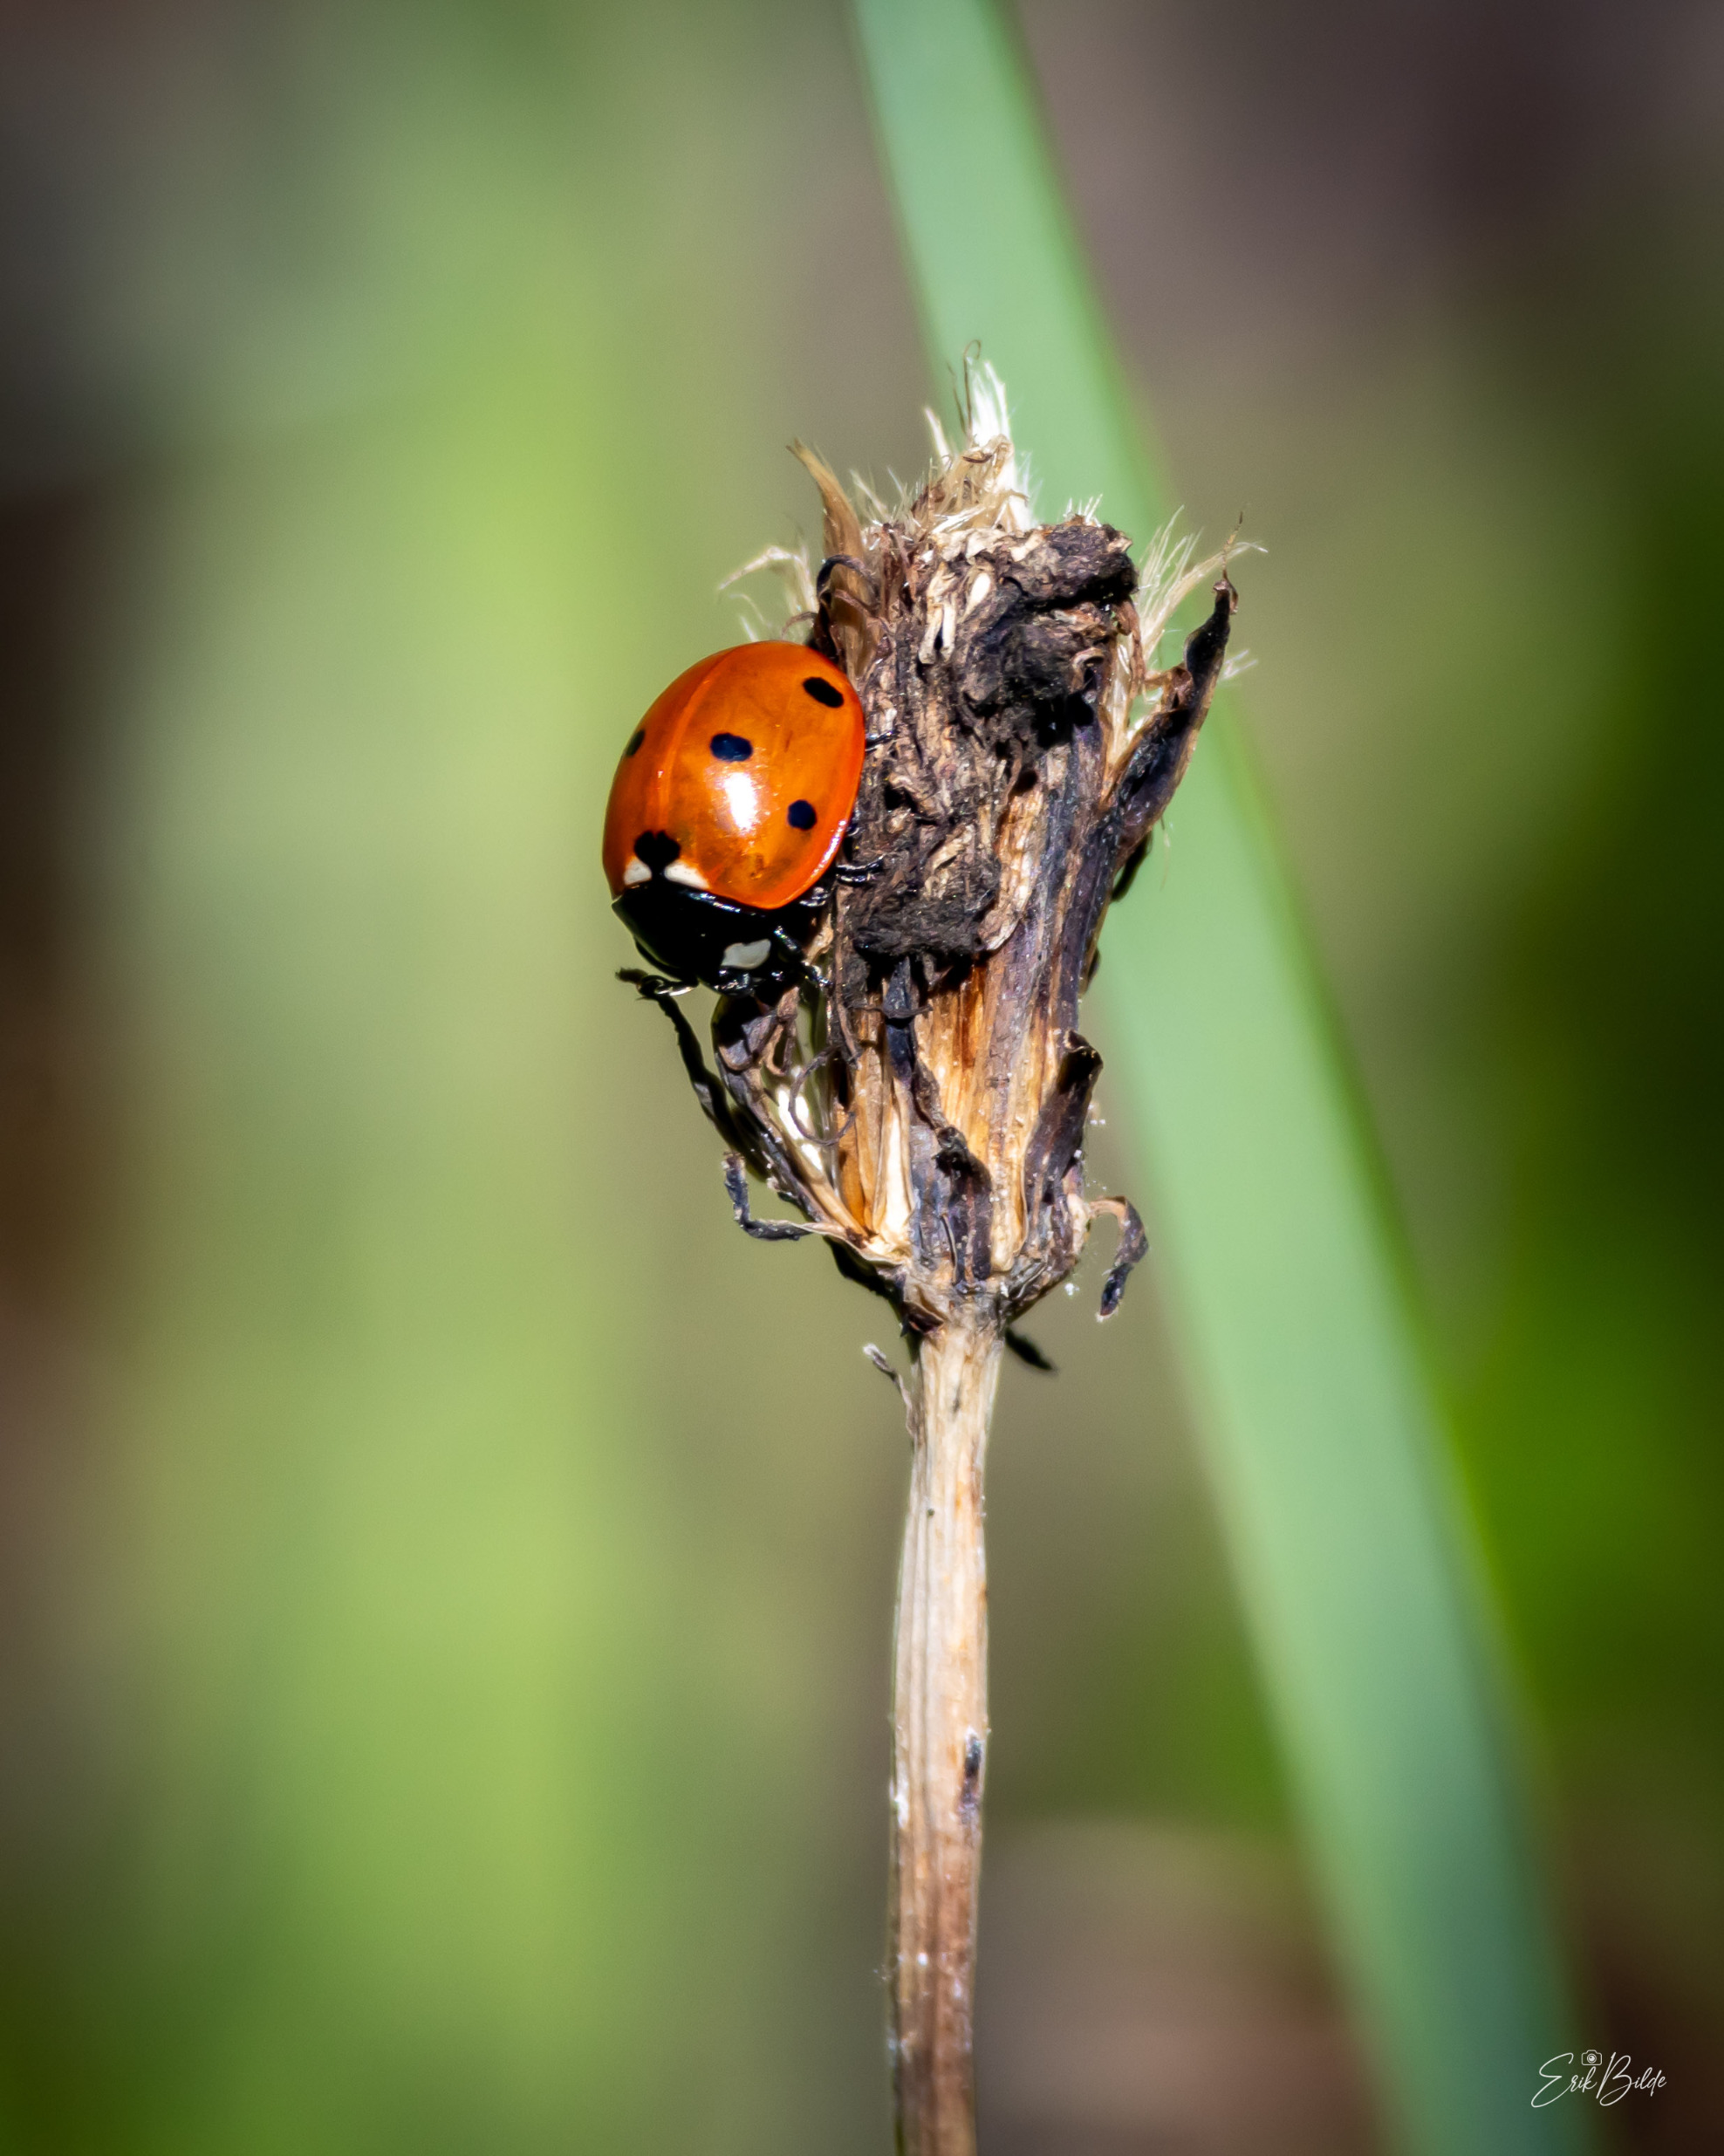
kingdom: Animalia
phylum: Arthropoda
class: Insecta
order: Coleoptera
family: Coccinellidae
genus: Coccinella
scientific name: Coccinella septempunctata
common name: Syvplettet mariehøne
